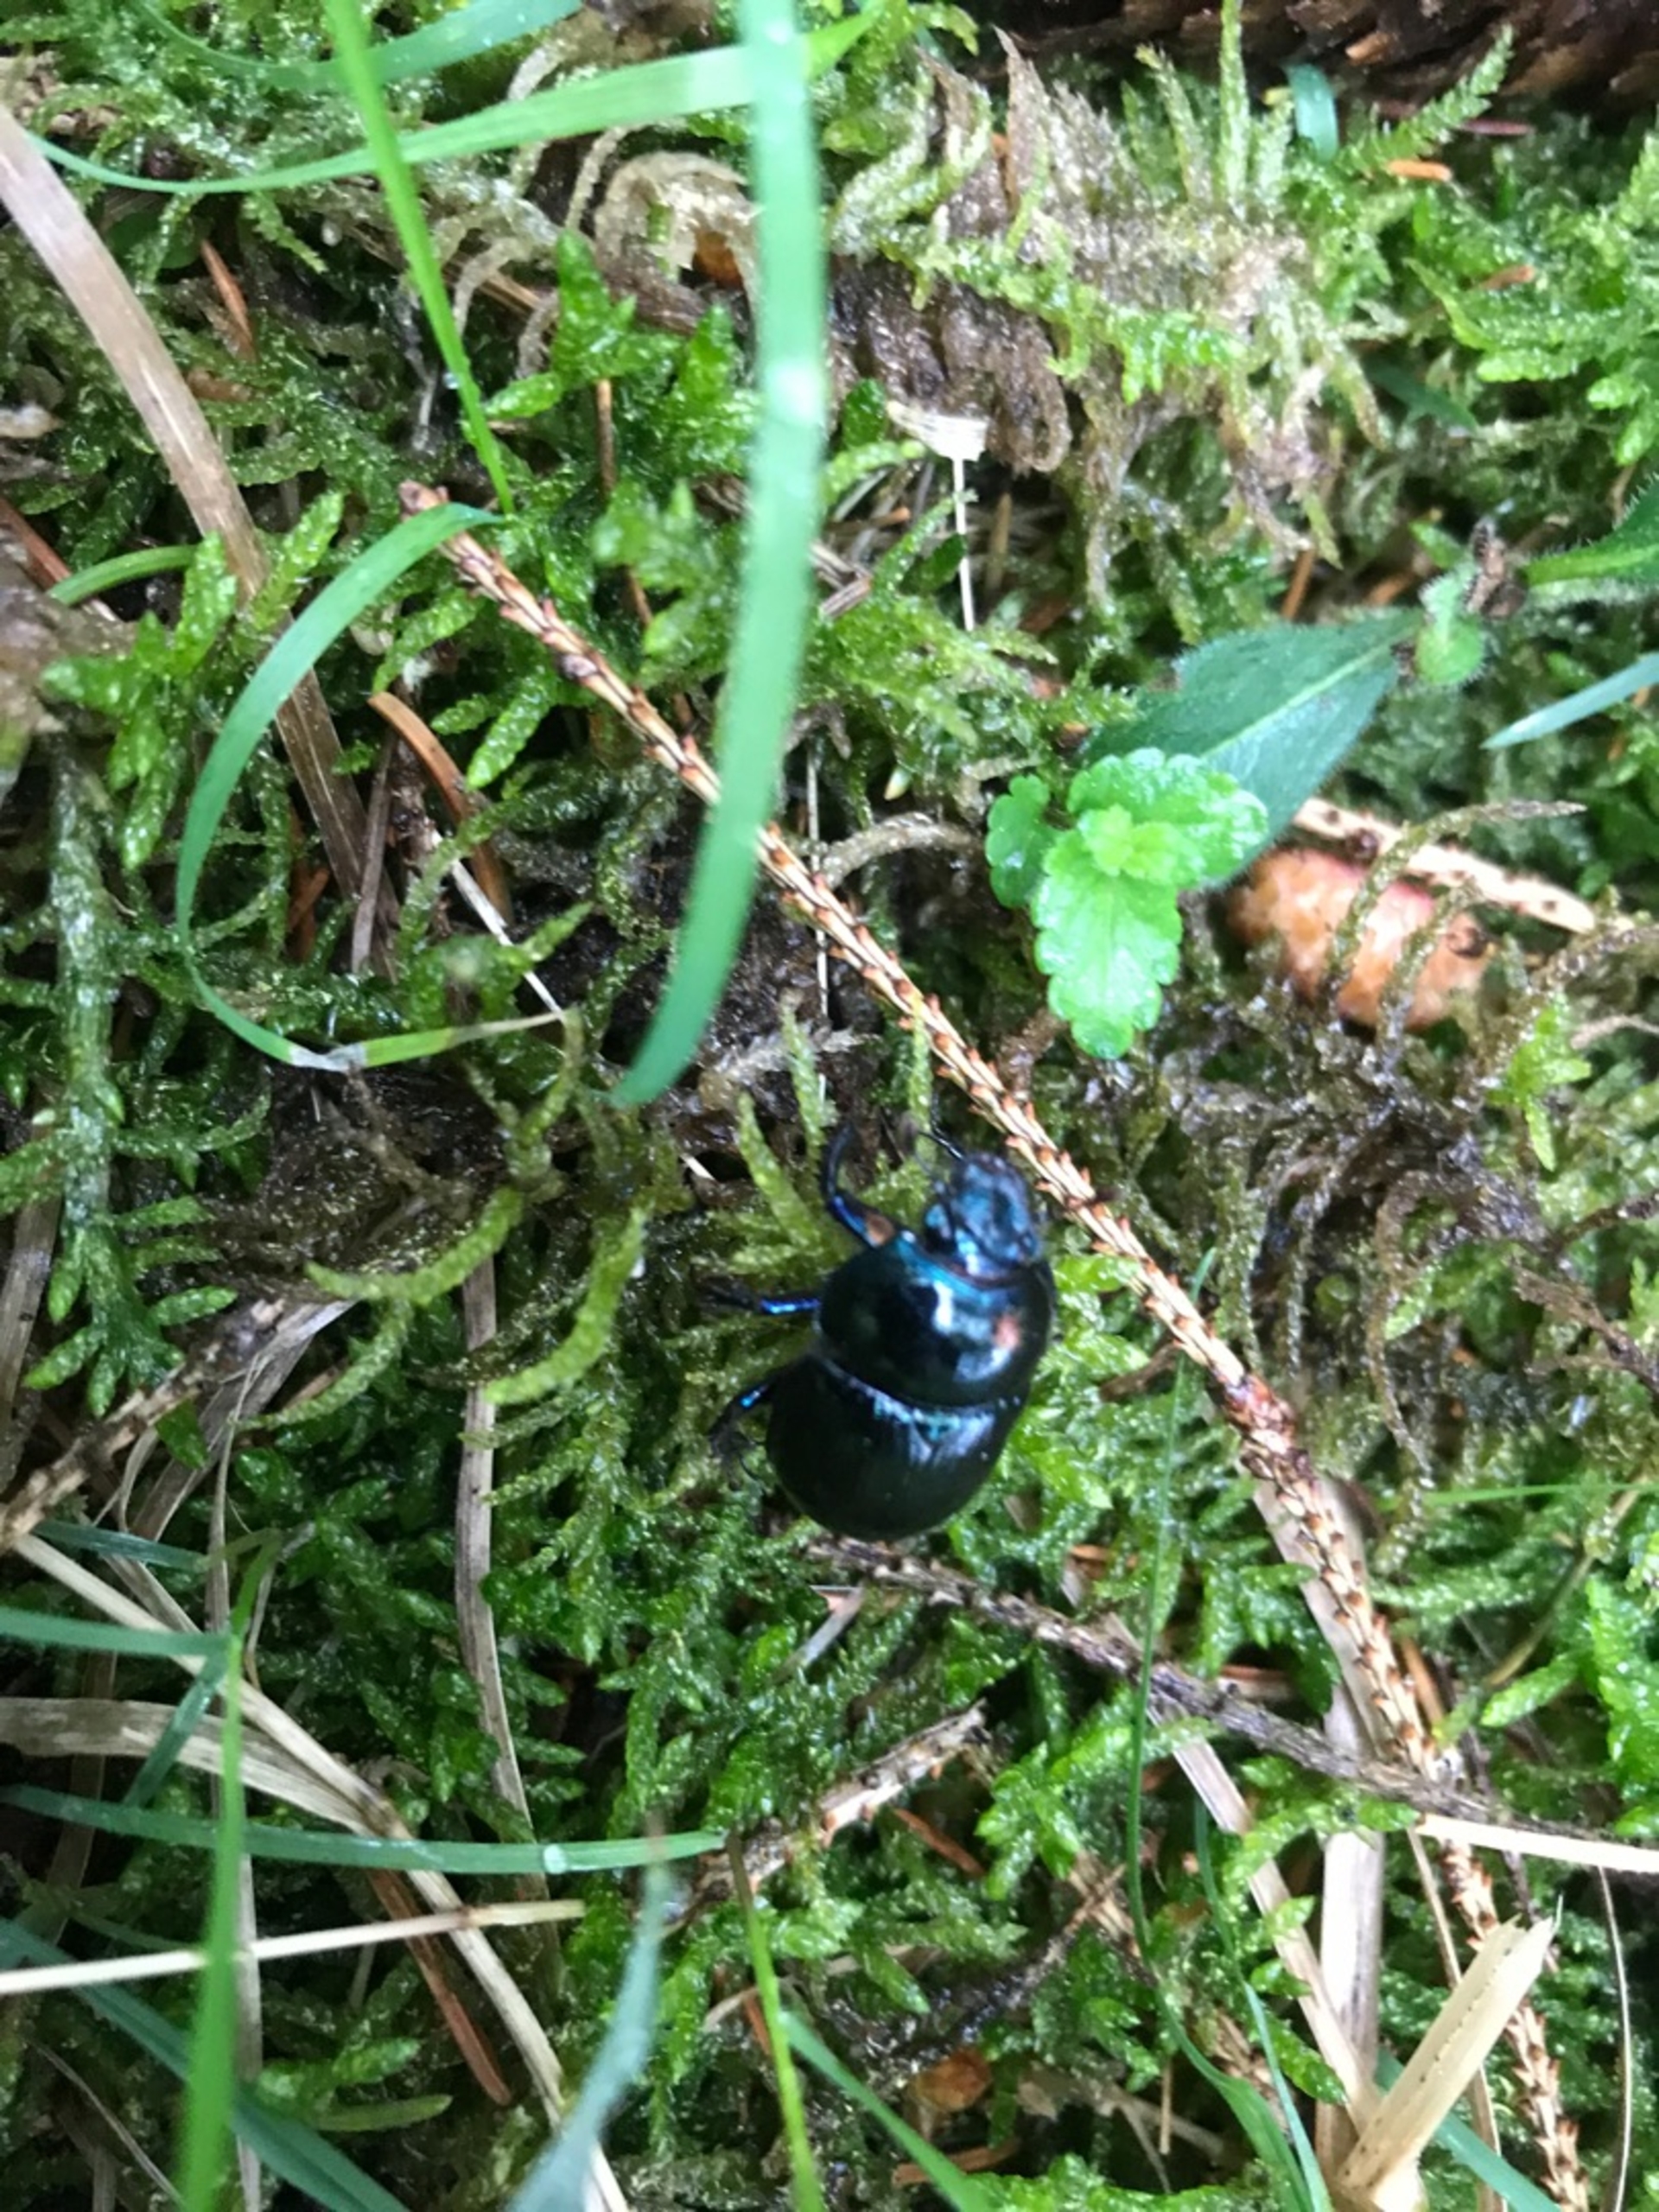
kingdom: Animalia
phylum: Arthropoda
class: Insecta
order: Coleoptera
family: Geotrupidae
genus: Anoplotrupes
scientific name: Anoplotrupes stercorosus
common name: Skovskarnbasse
